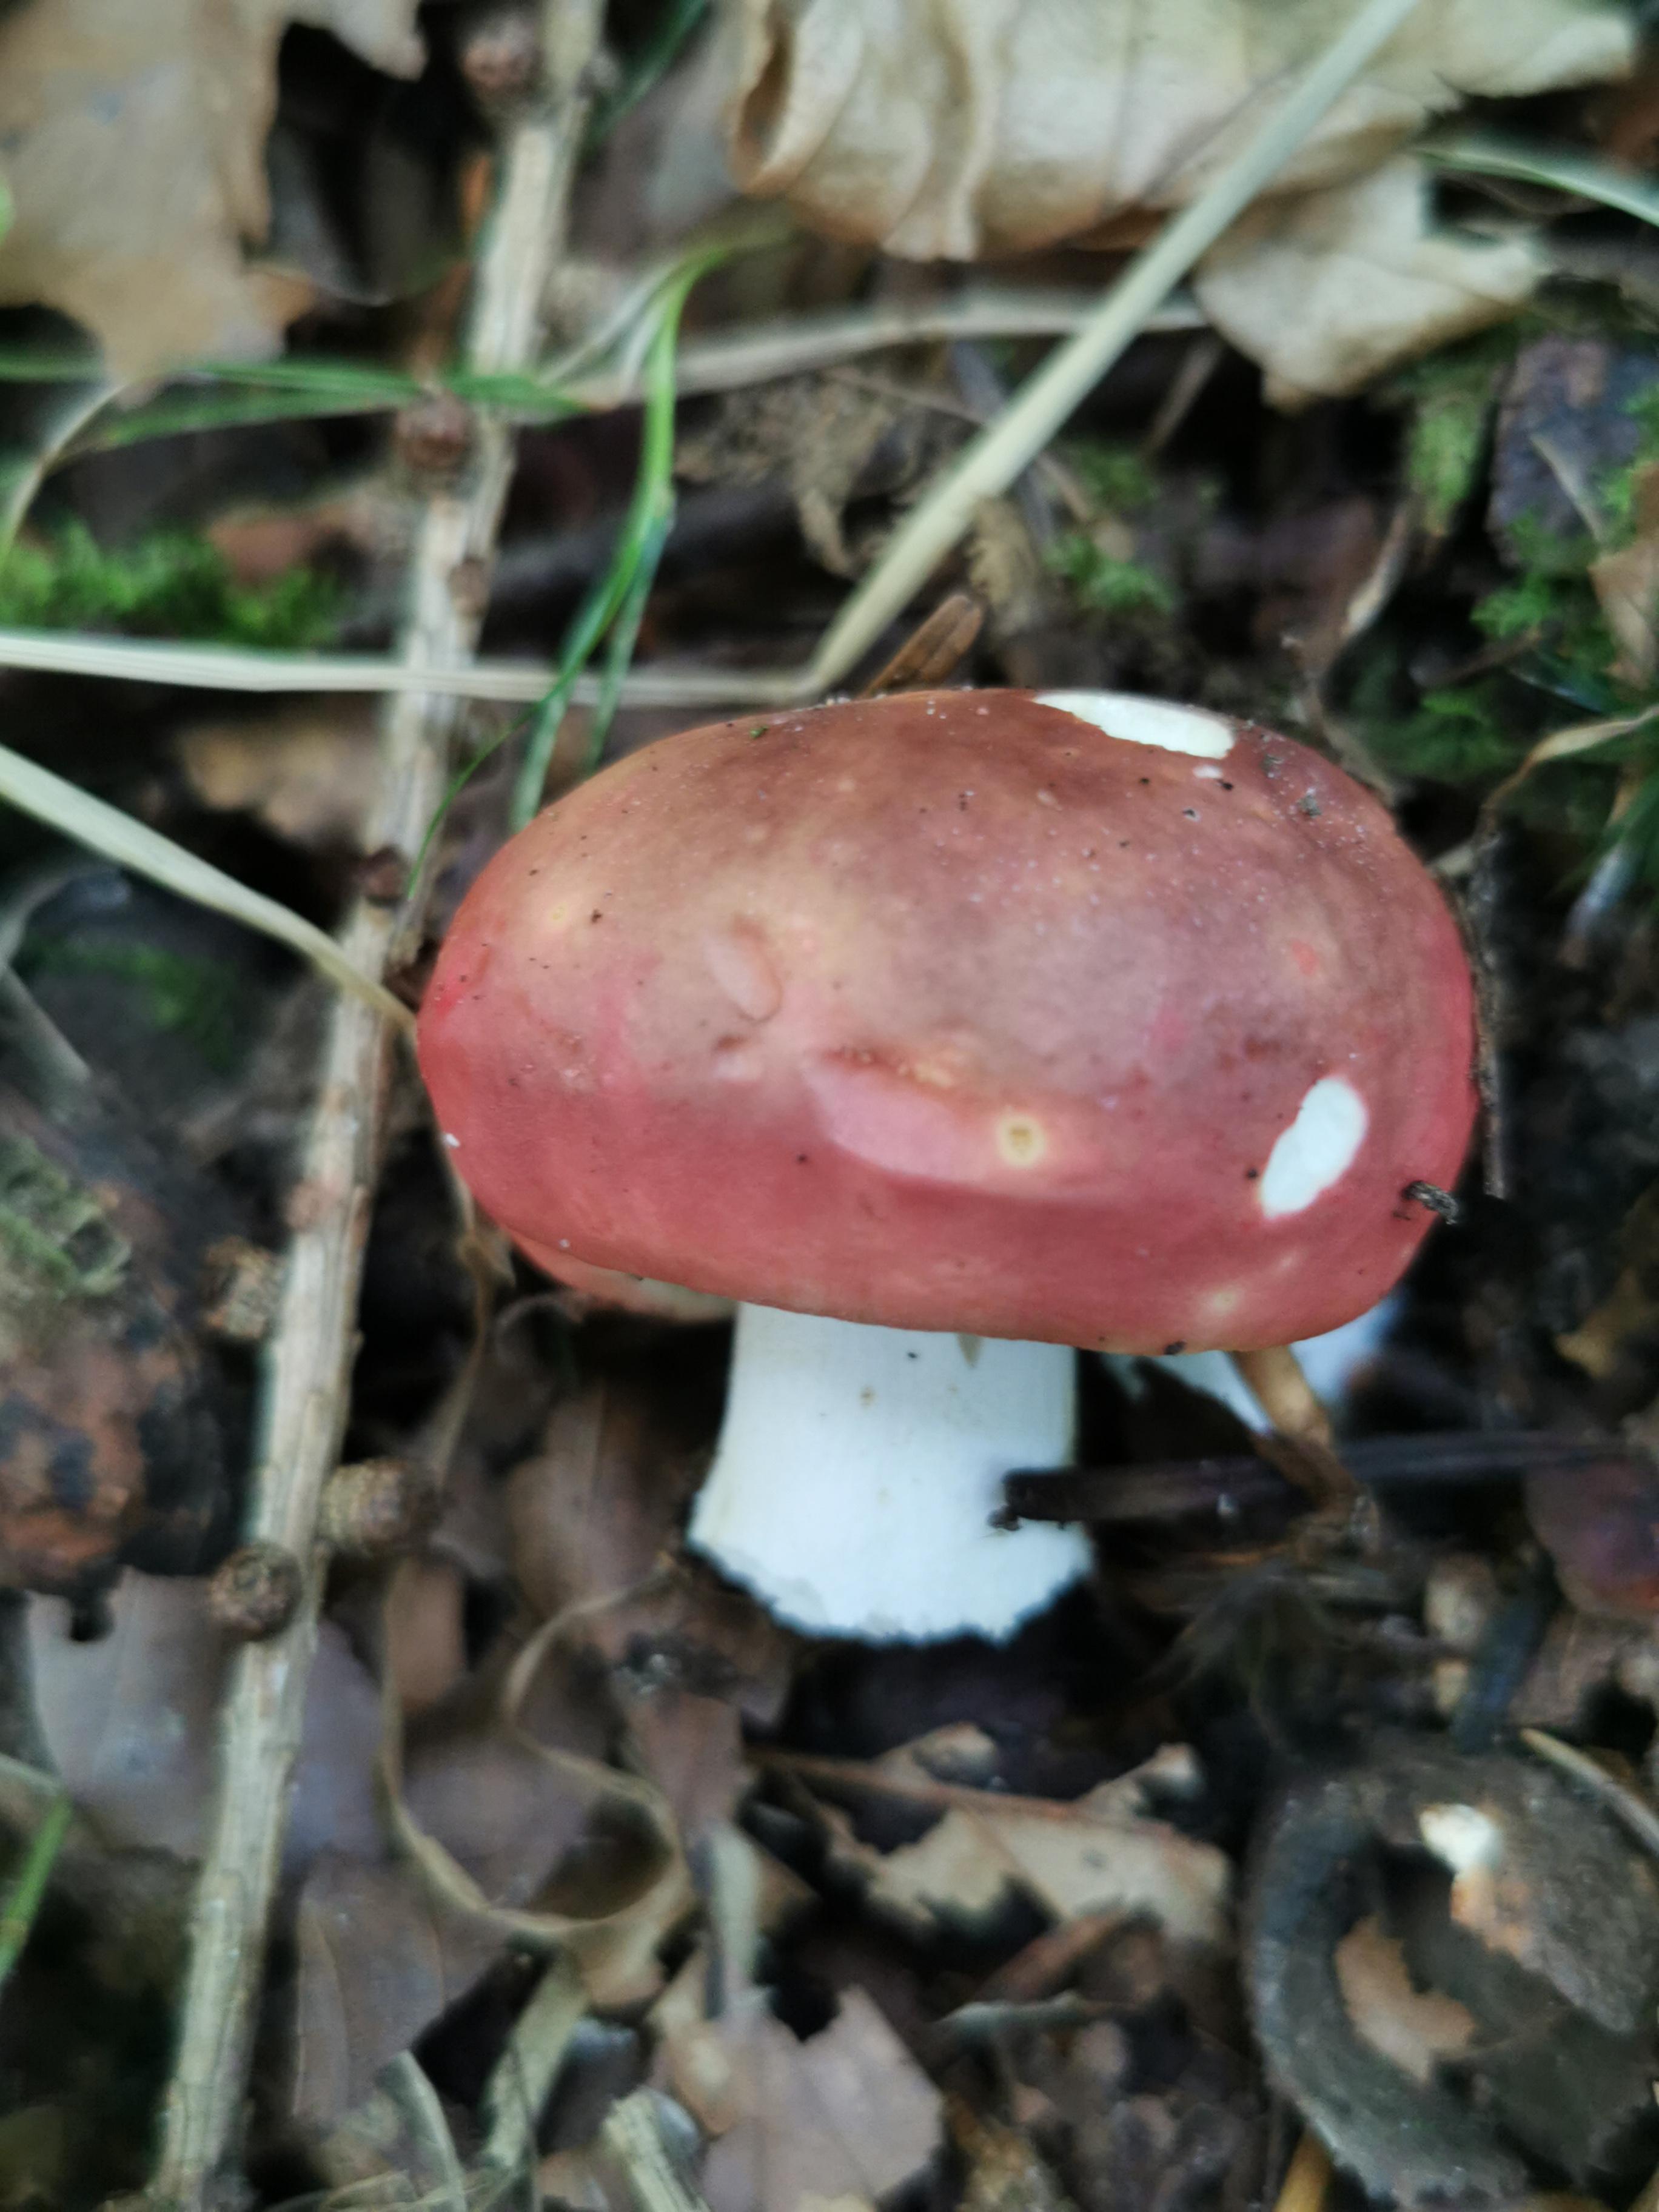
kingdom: Fungi
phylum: Basidiomycota
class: Agaricomycetes
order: Russulales
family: Russulaceae
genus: Russula
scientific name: Russula
